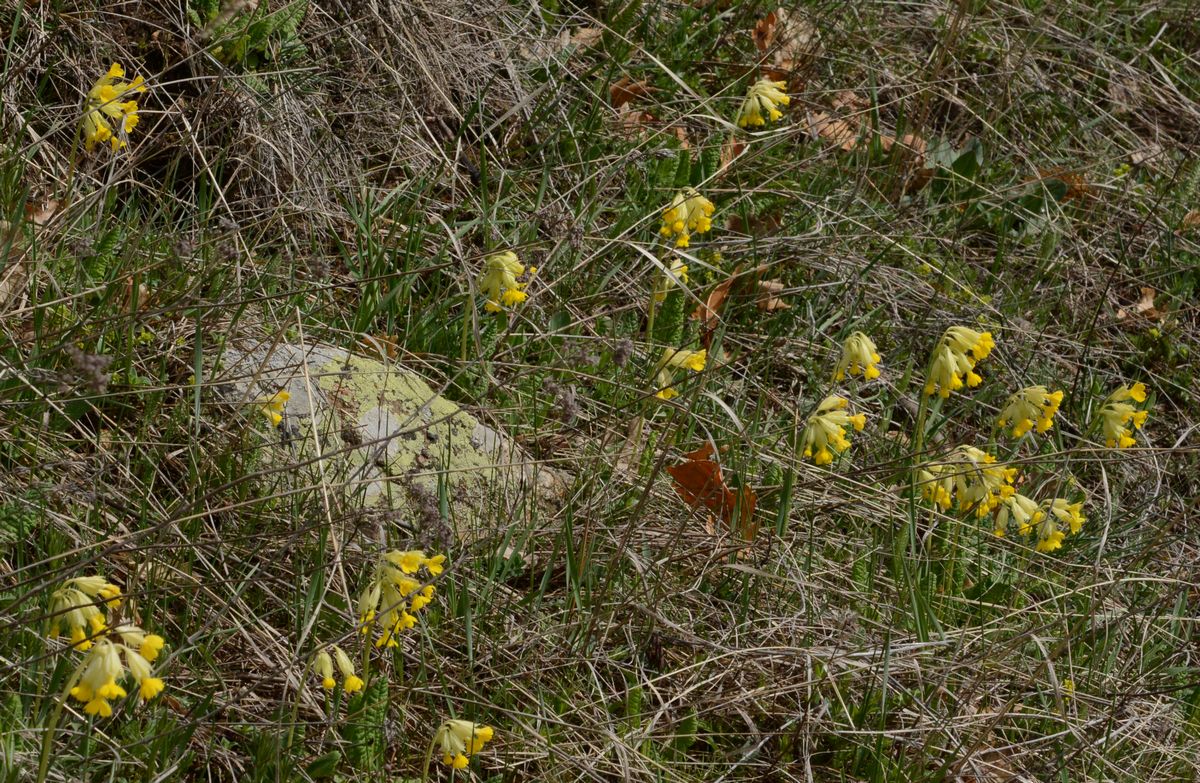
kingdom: Plantae
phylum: Tracheophyta
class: Magnoliopsida
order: Ericales
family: Primulaceae
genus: Primula
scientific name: Primula veris
